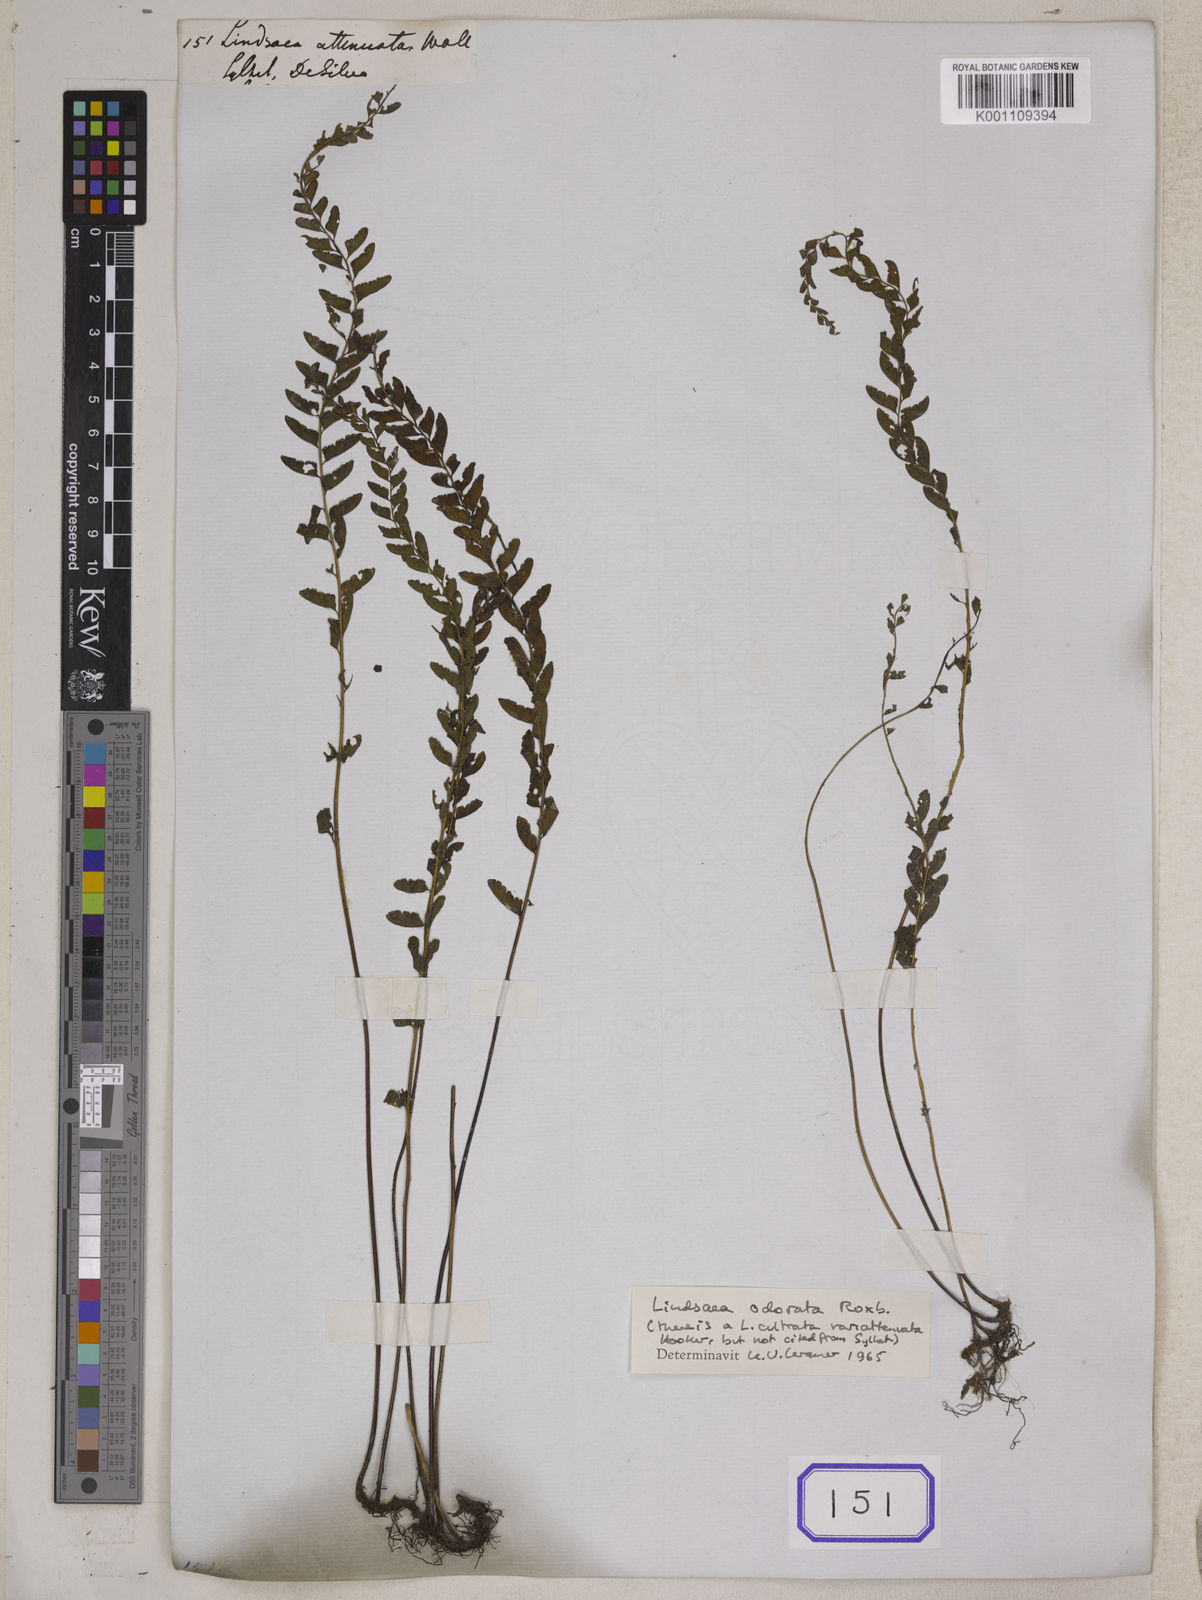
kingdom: Plantae
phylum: Tracheophyta
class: Polypodiopsida
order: Polypodiales
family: Lindsaeaceae
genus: Lindsaea
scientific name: Lindsaea cultrata
